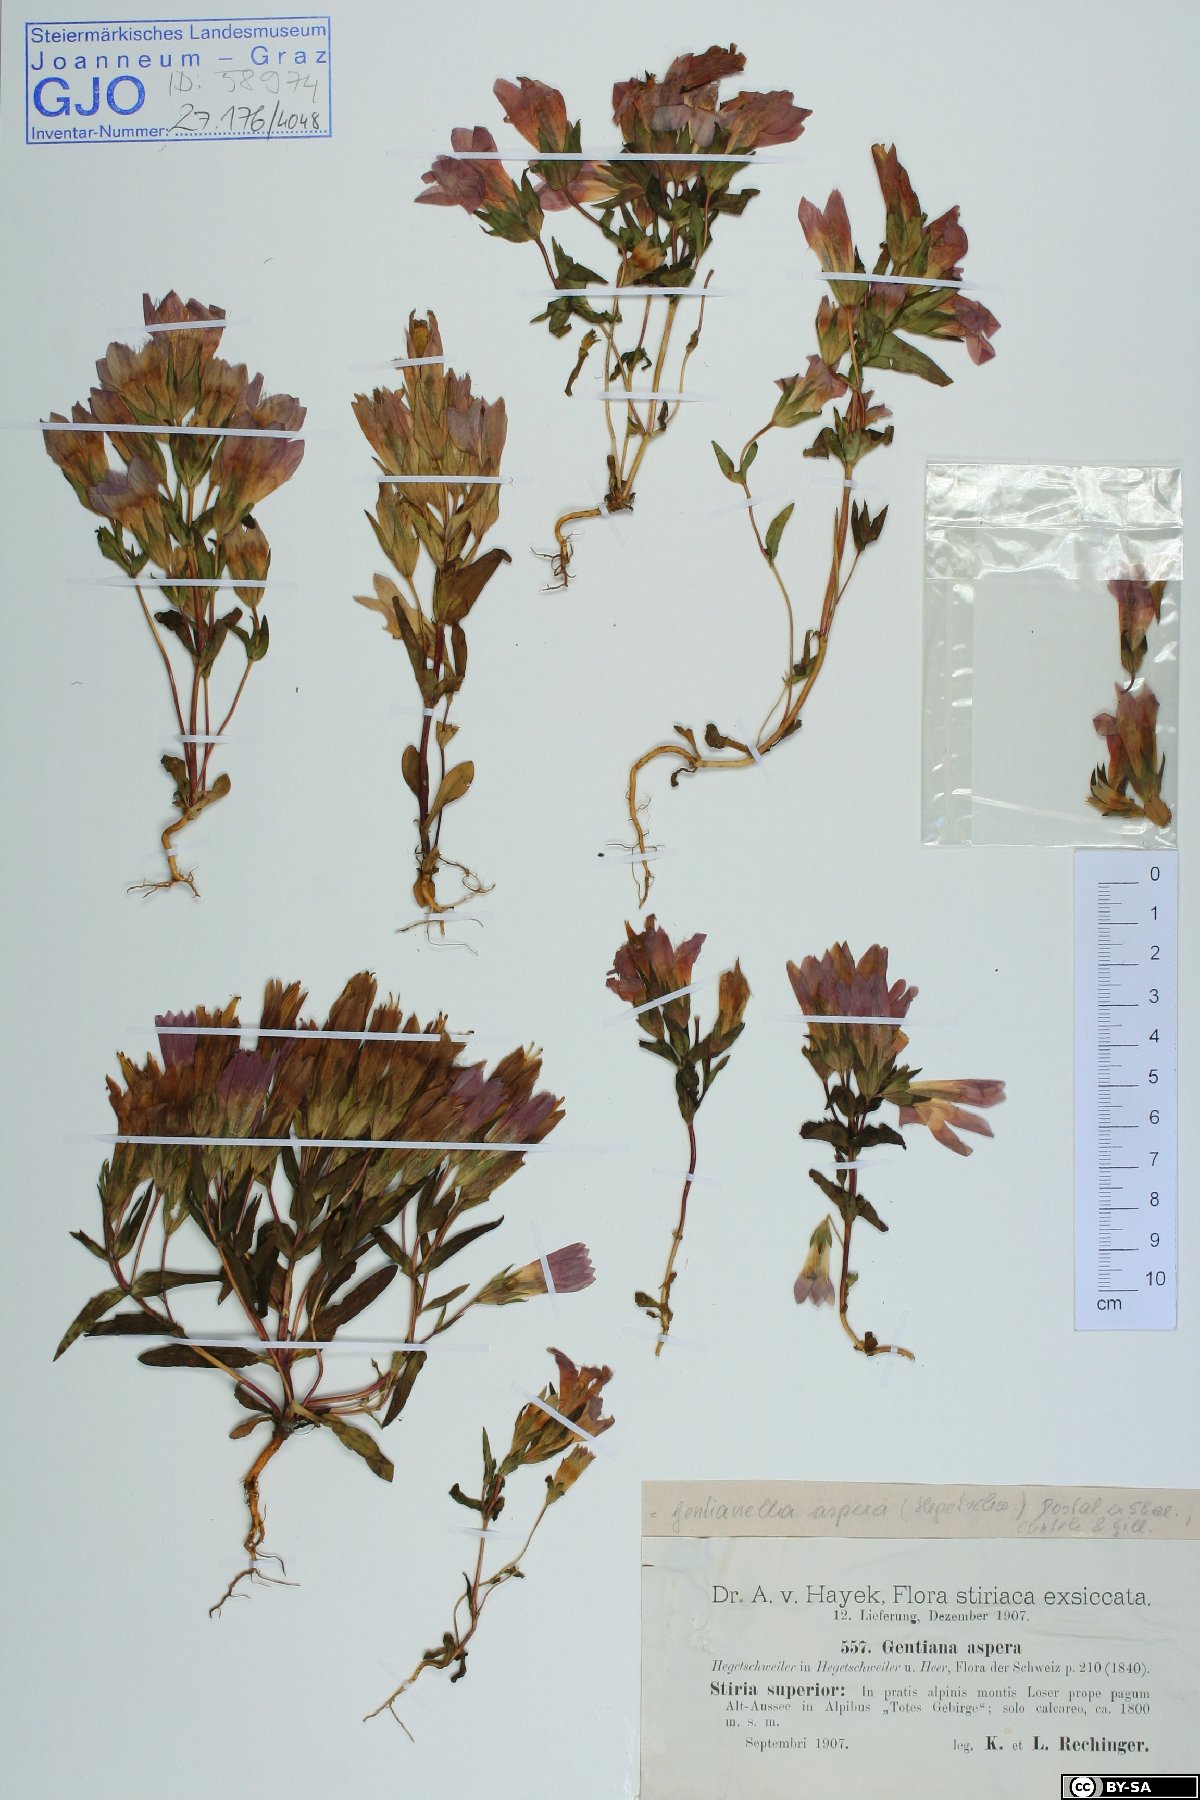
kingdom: Plantae
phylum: Tracheophyta
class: Magnoliopsida
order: Gentianales
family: Gentianaceae
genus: Gentianella
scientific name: Gentianella obtusifolia
